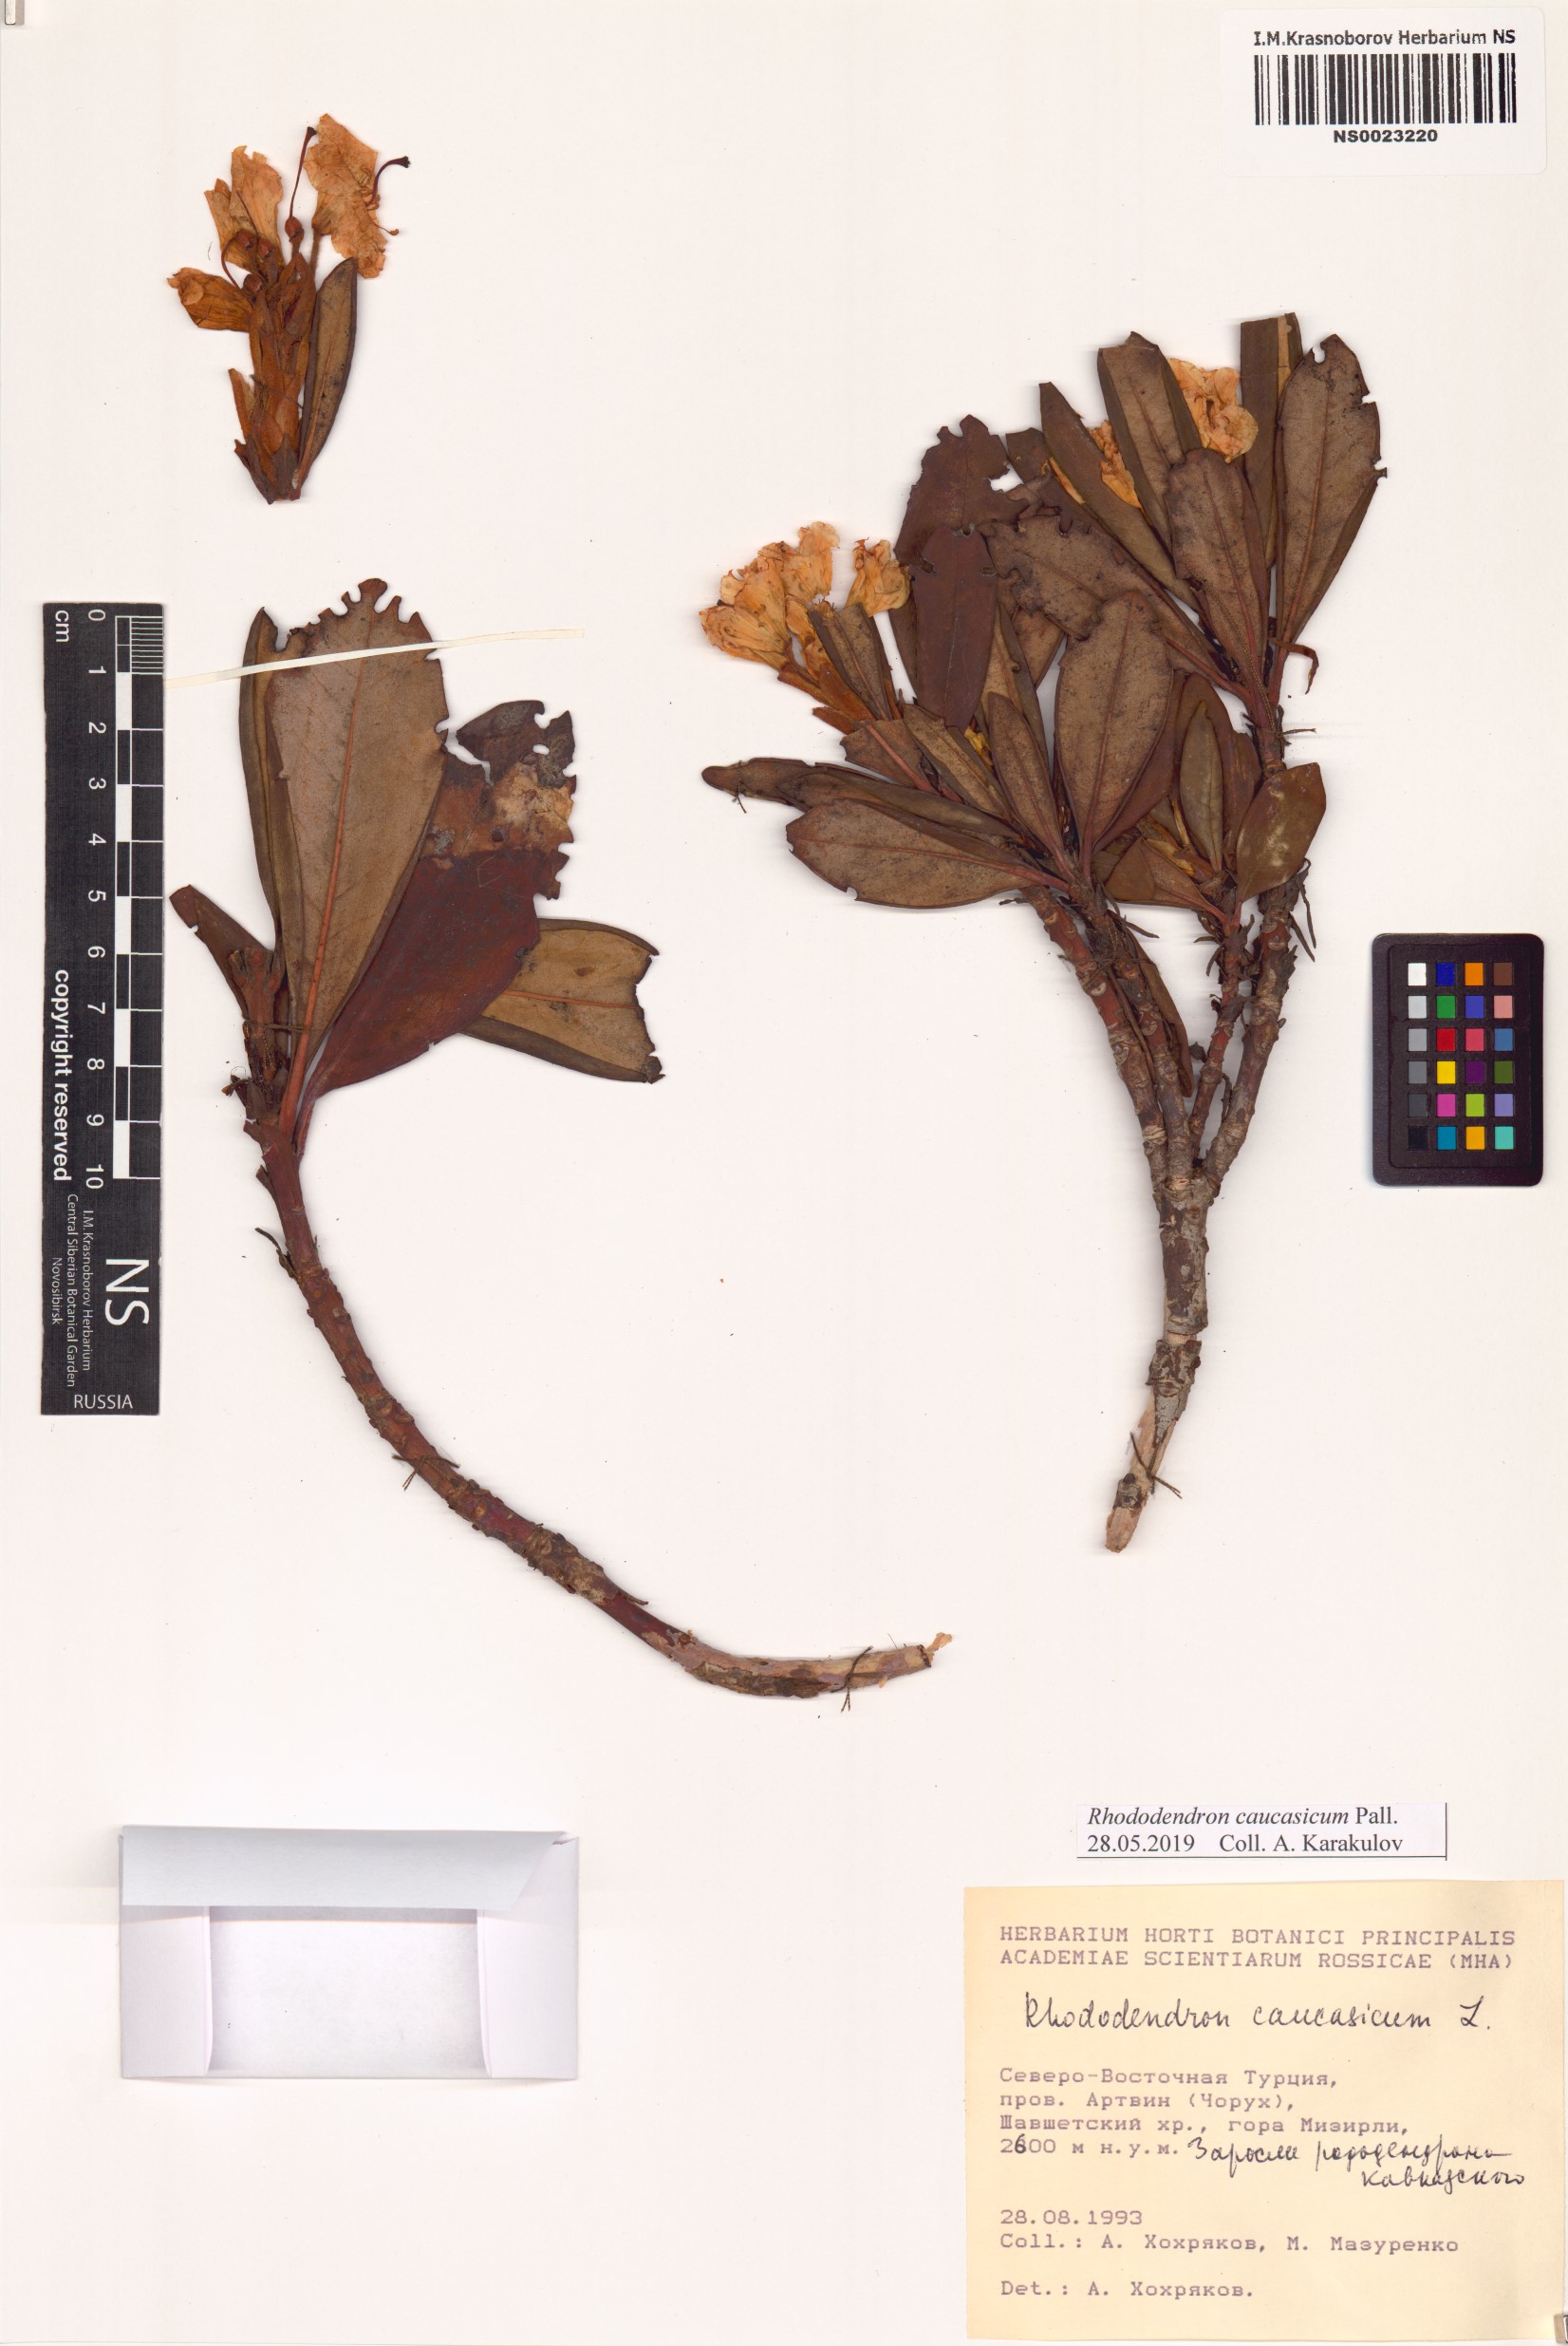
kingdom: Plantae
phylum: Tracheophyta
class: Magnoliopsida
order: Ericales
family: Ericaceae
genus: Rhododendron
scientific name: Rhododendron caucasicum
